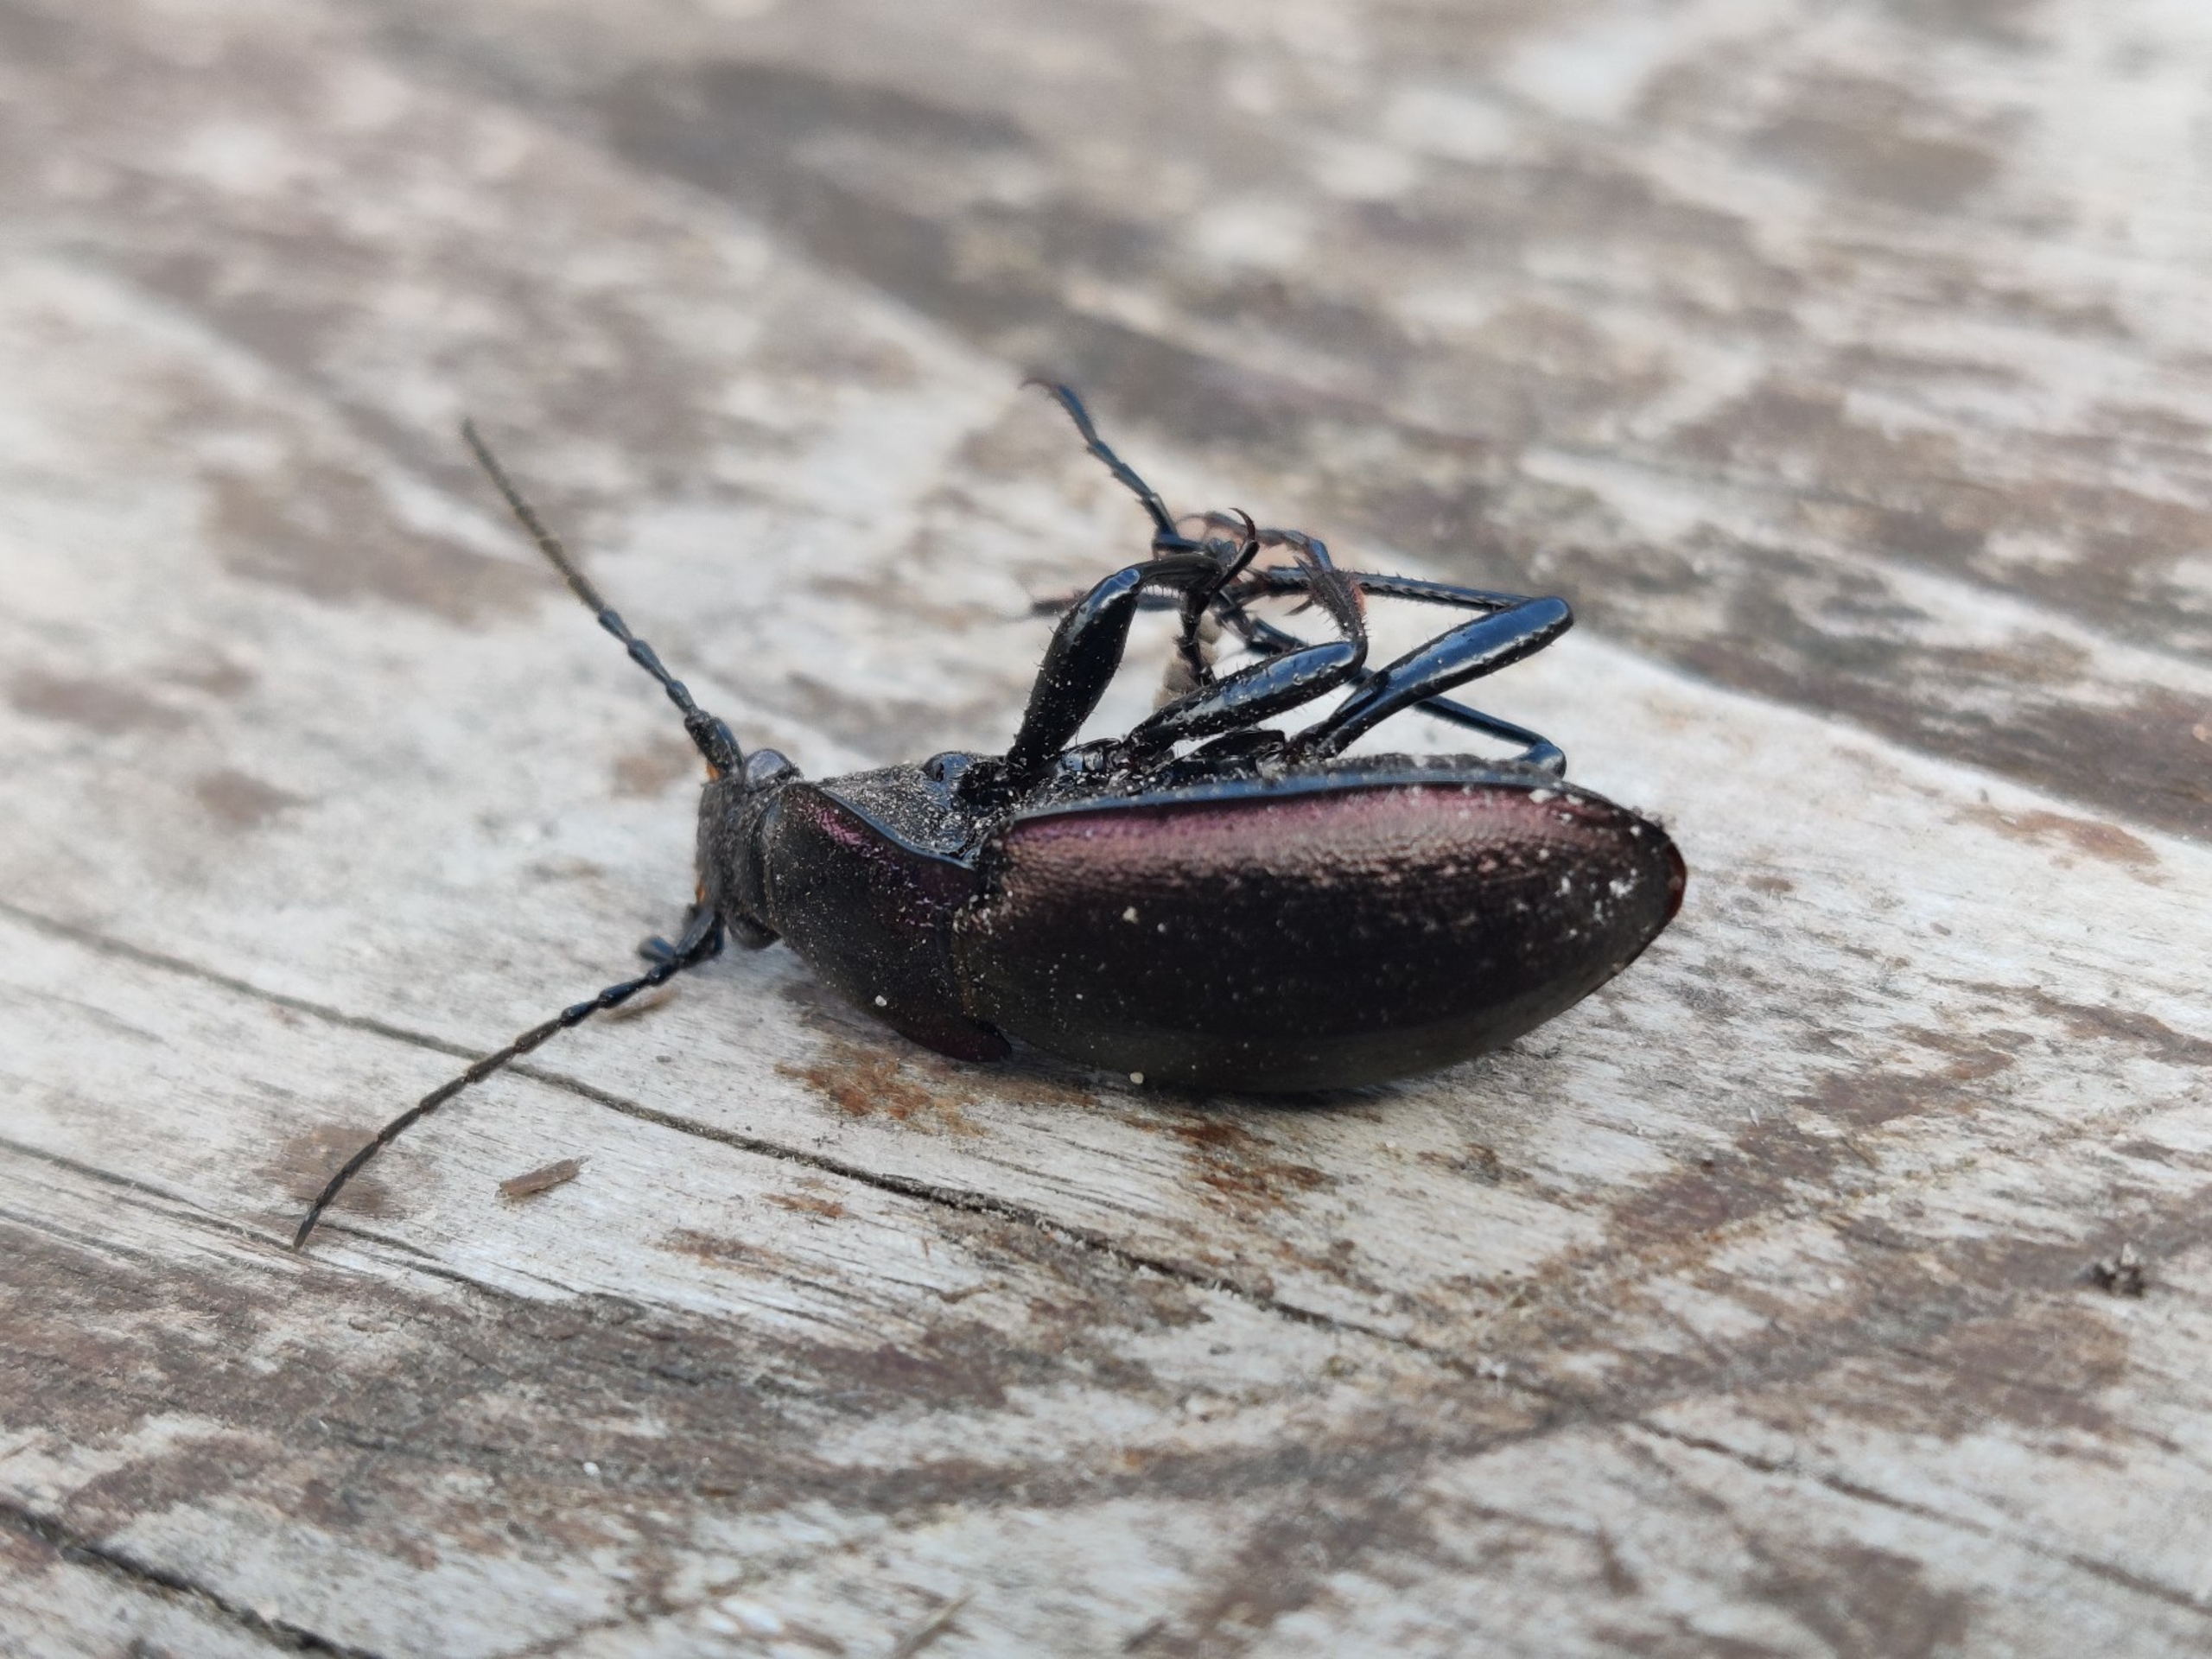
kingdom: Animalia
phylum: Arthropoda
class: Insecta
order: Coleoptera
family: Carabidae
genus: Carabus
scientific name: Carabus nemoralis
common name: Kratløber
